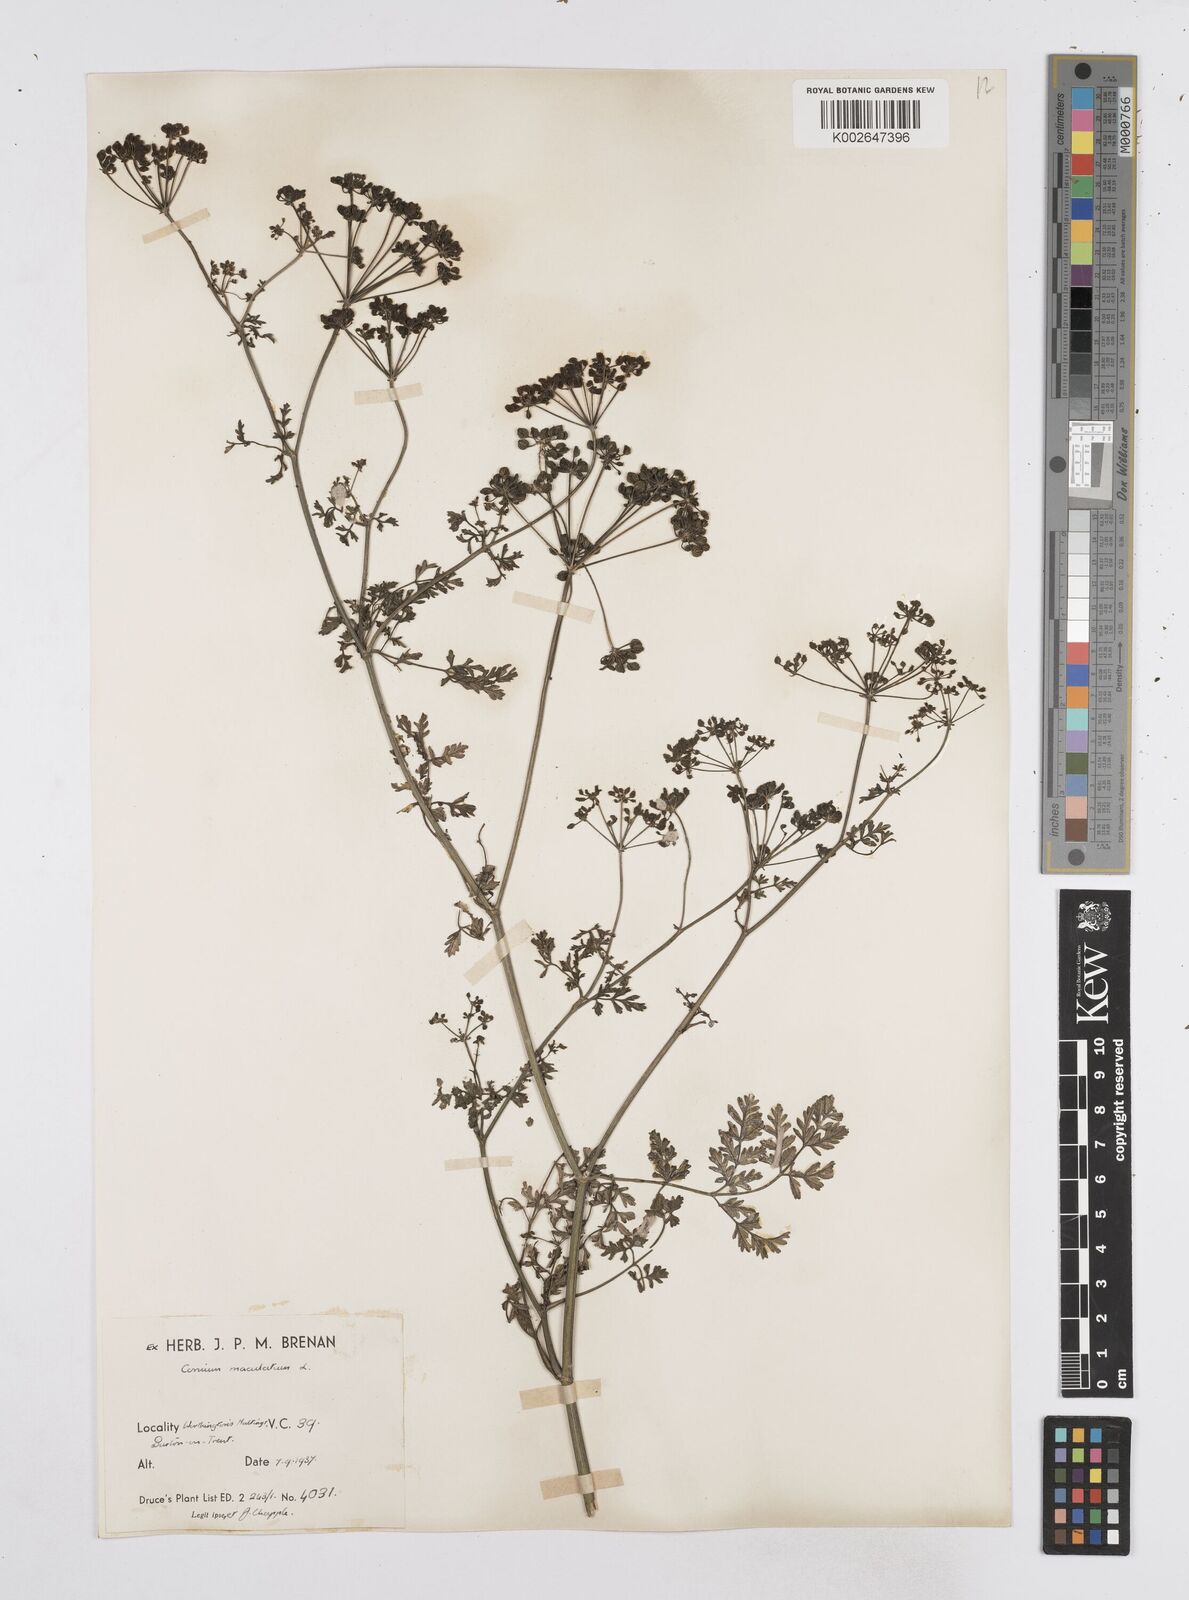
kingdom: Plantae
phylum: Tracheophyta
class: Magnoliopsida
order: Apiales
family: Apiaceae
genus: Conium
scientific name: Conium maculatum
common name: Hemlock
